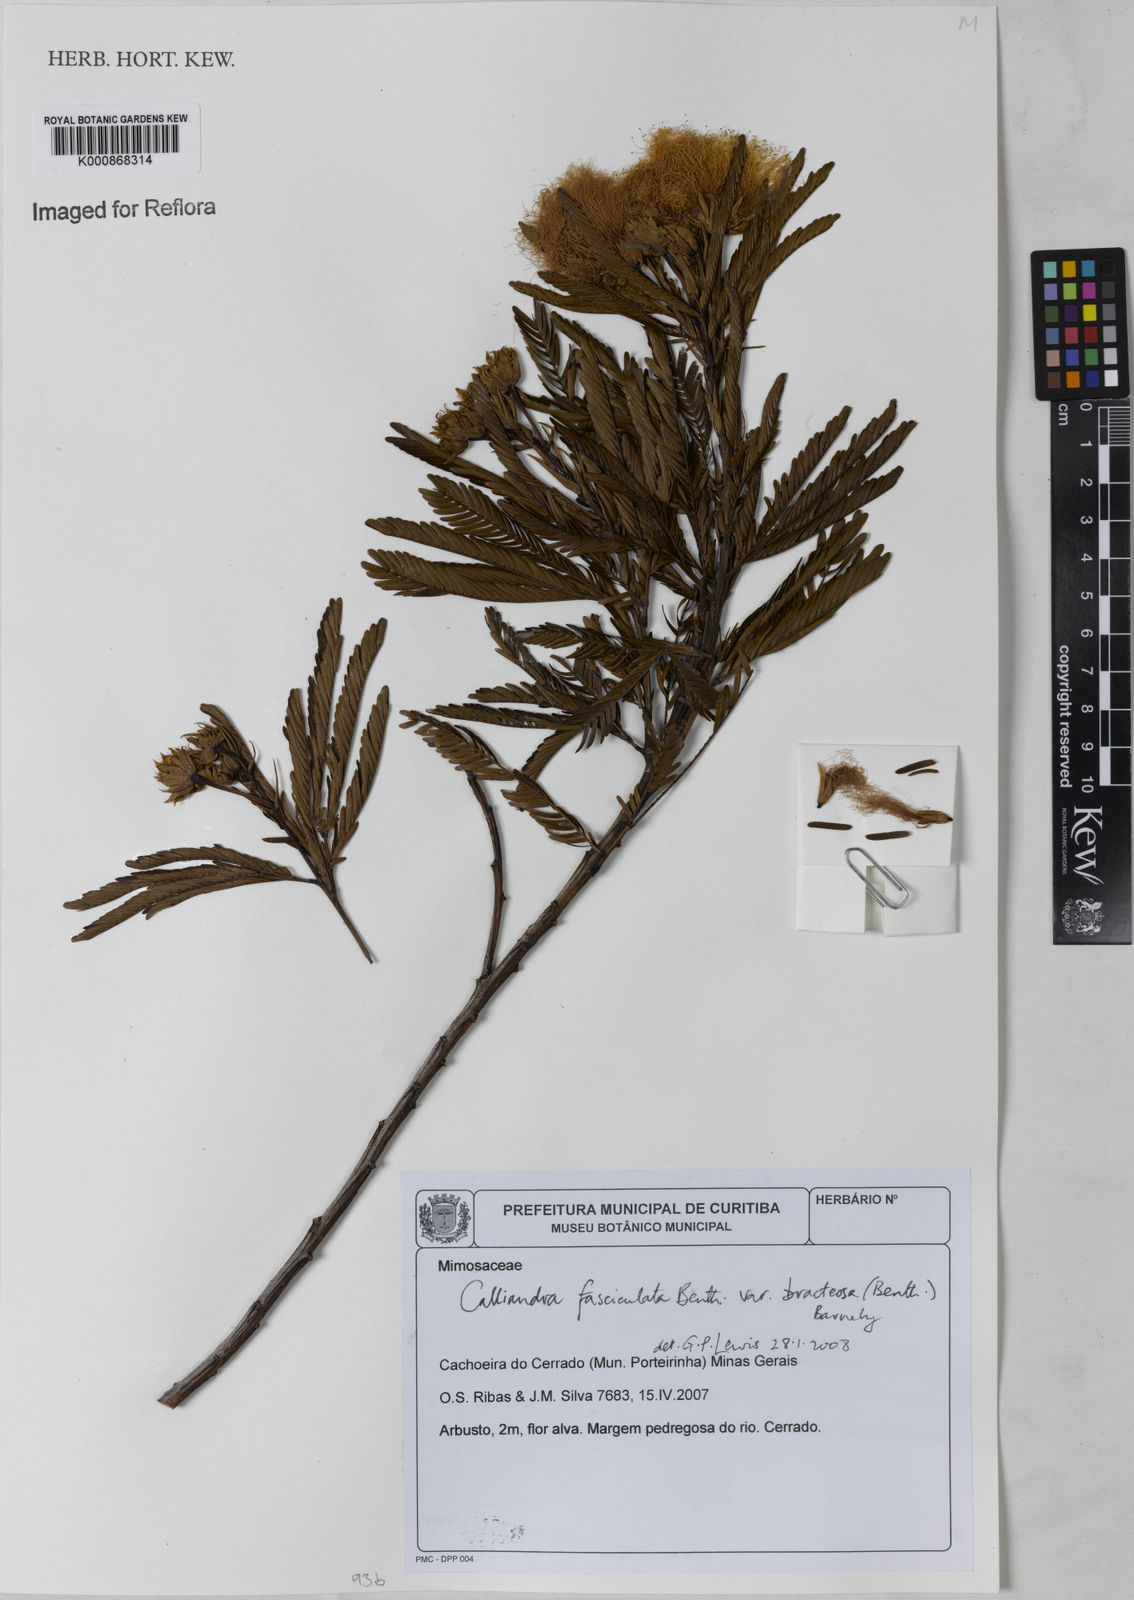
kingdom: Plantae
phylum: Tracheophyta
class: Magnoliopsida
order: Fabales
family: Fabaceae
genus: Calliandra
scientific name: Calliandra fasciculata
